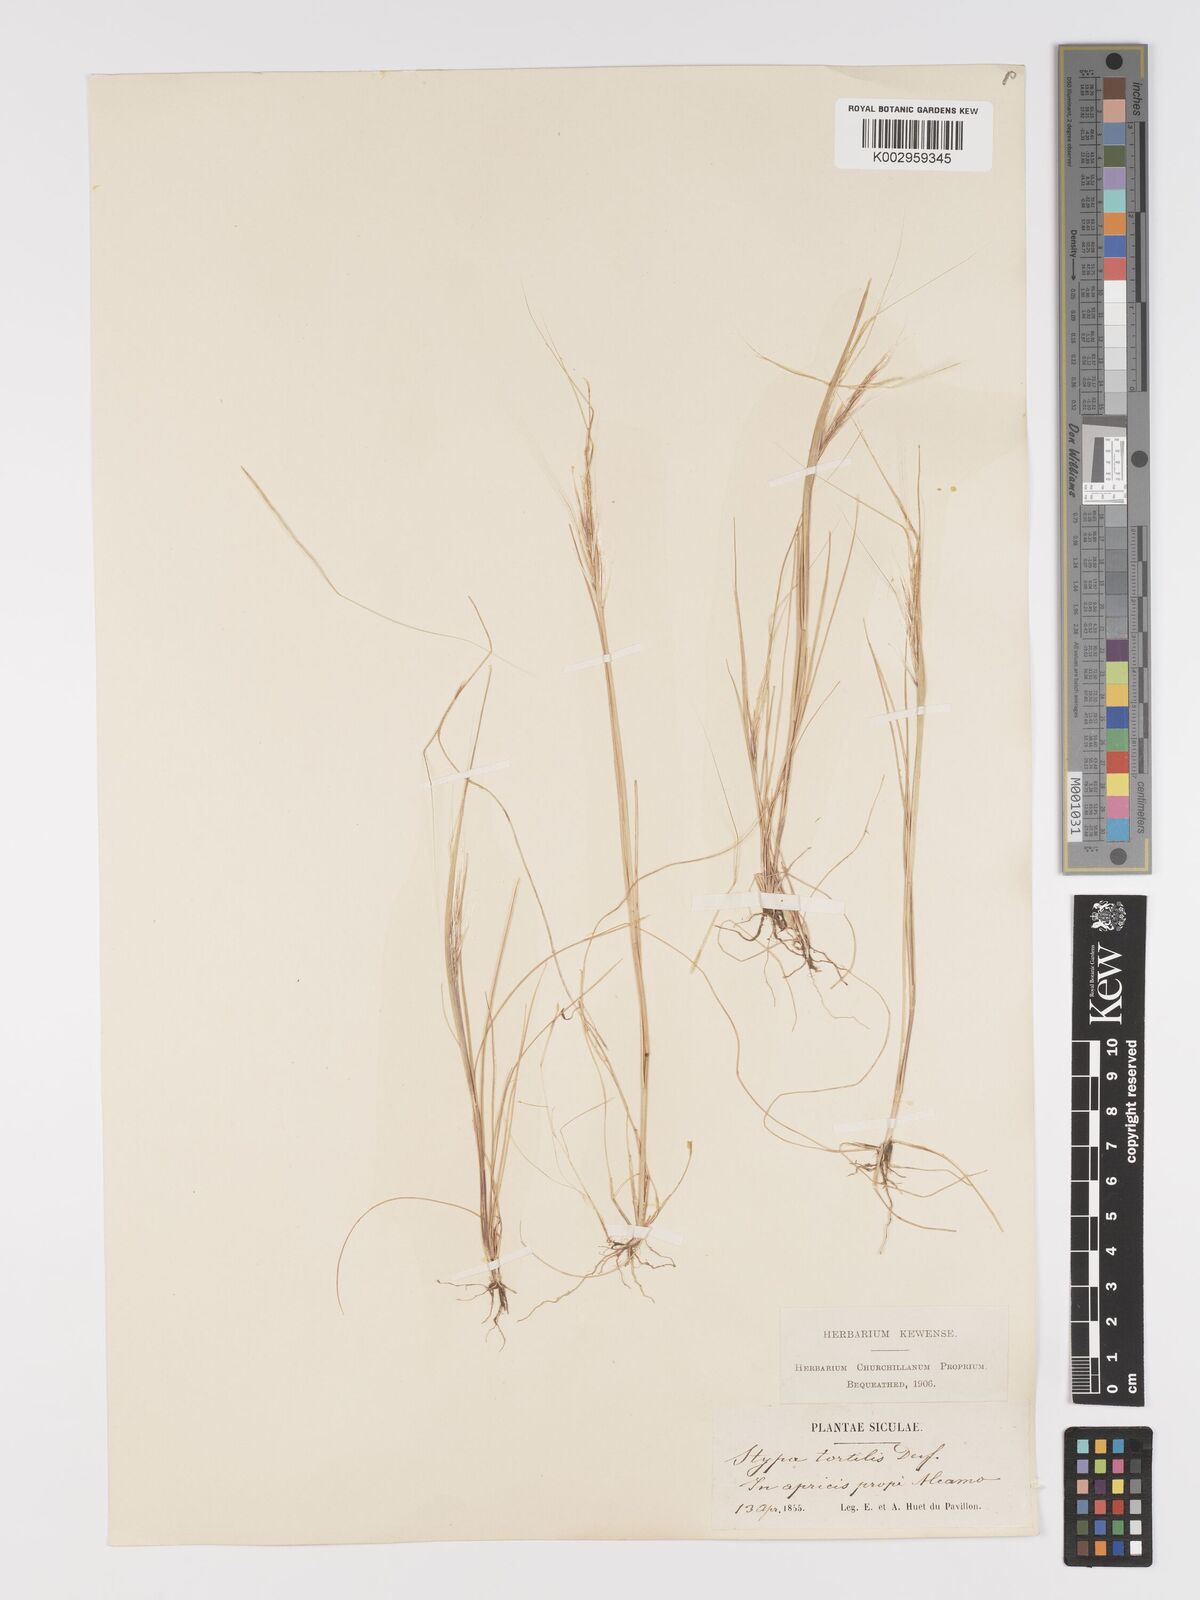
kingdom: Plantae
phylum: Tracheophyta
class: Liliopsida
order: Poales
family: Poaceae
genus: Stipellula
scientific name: Stipellula capensis
